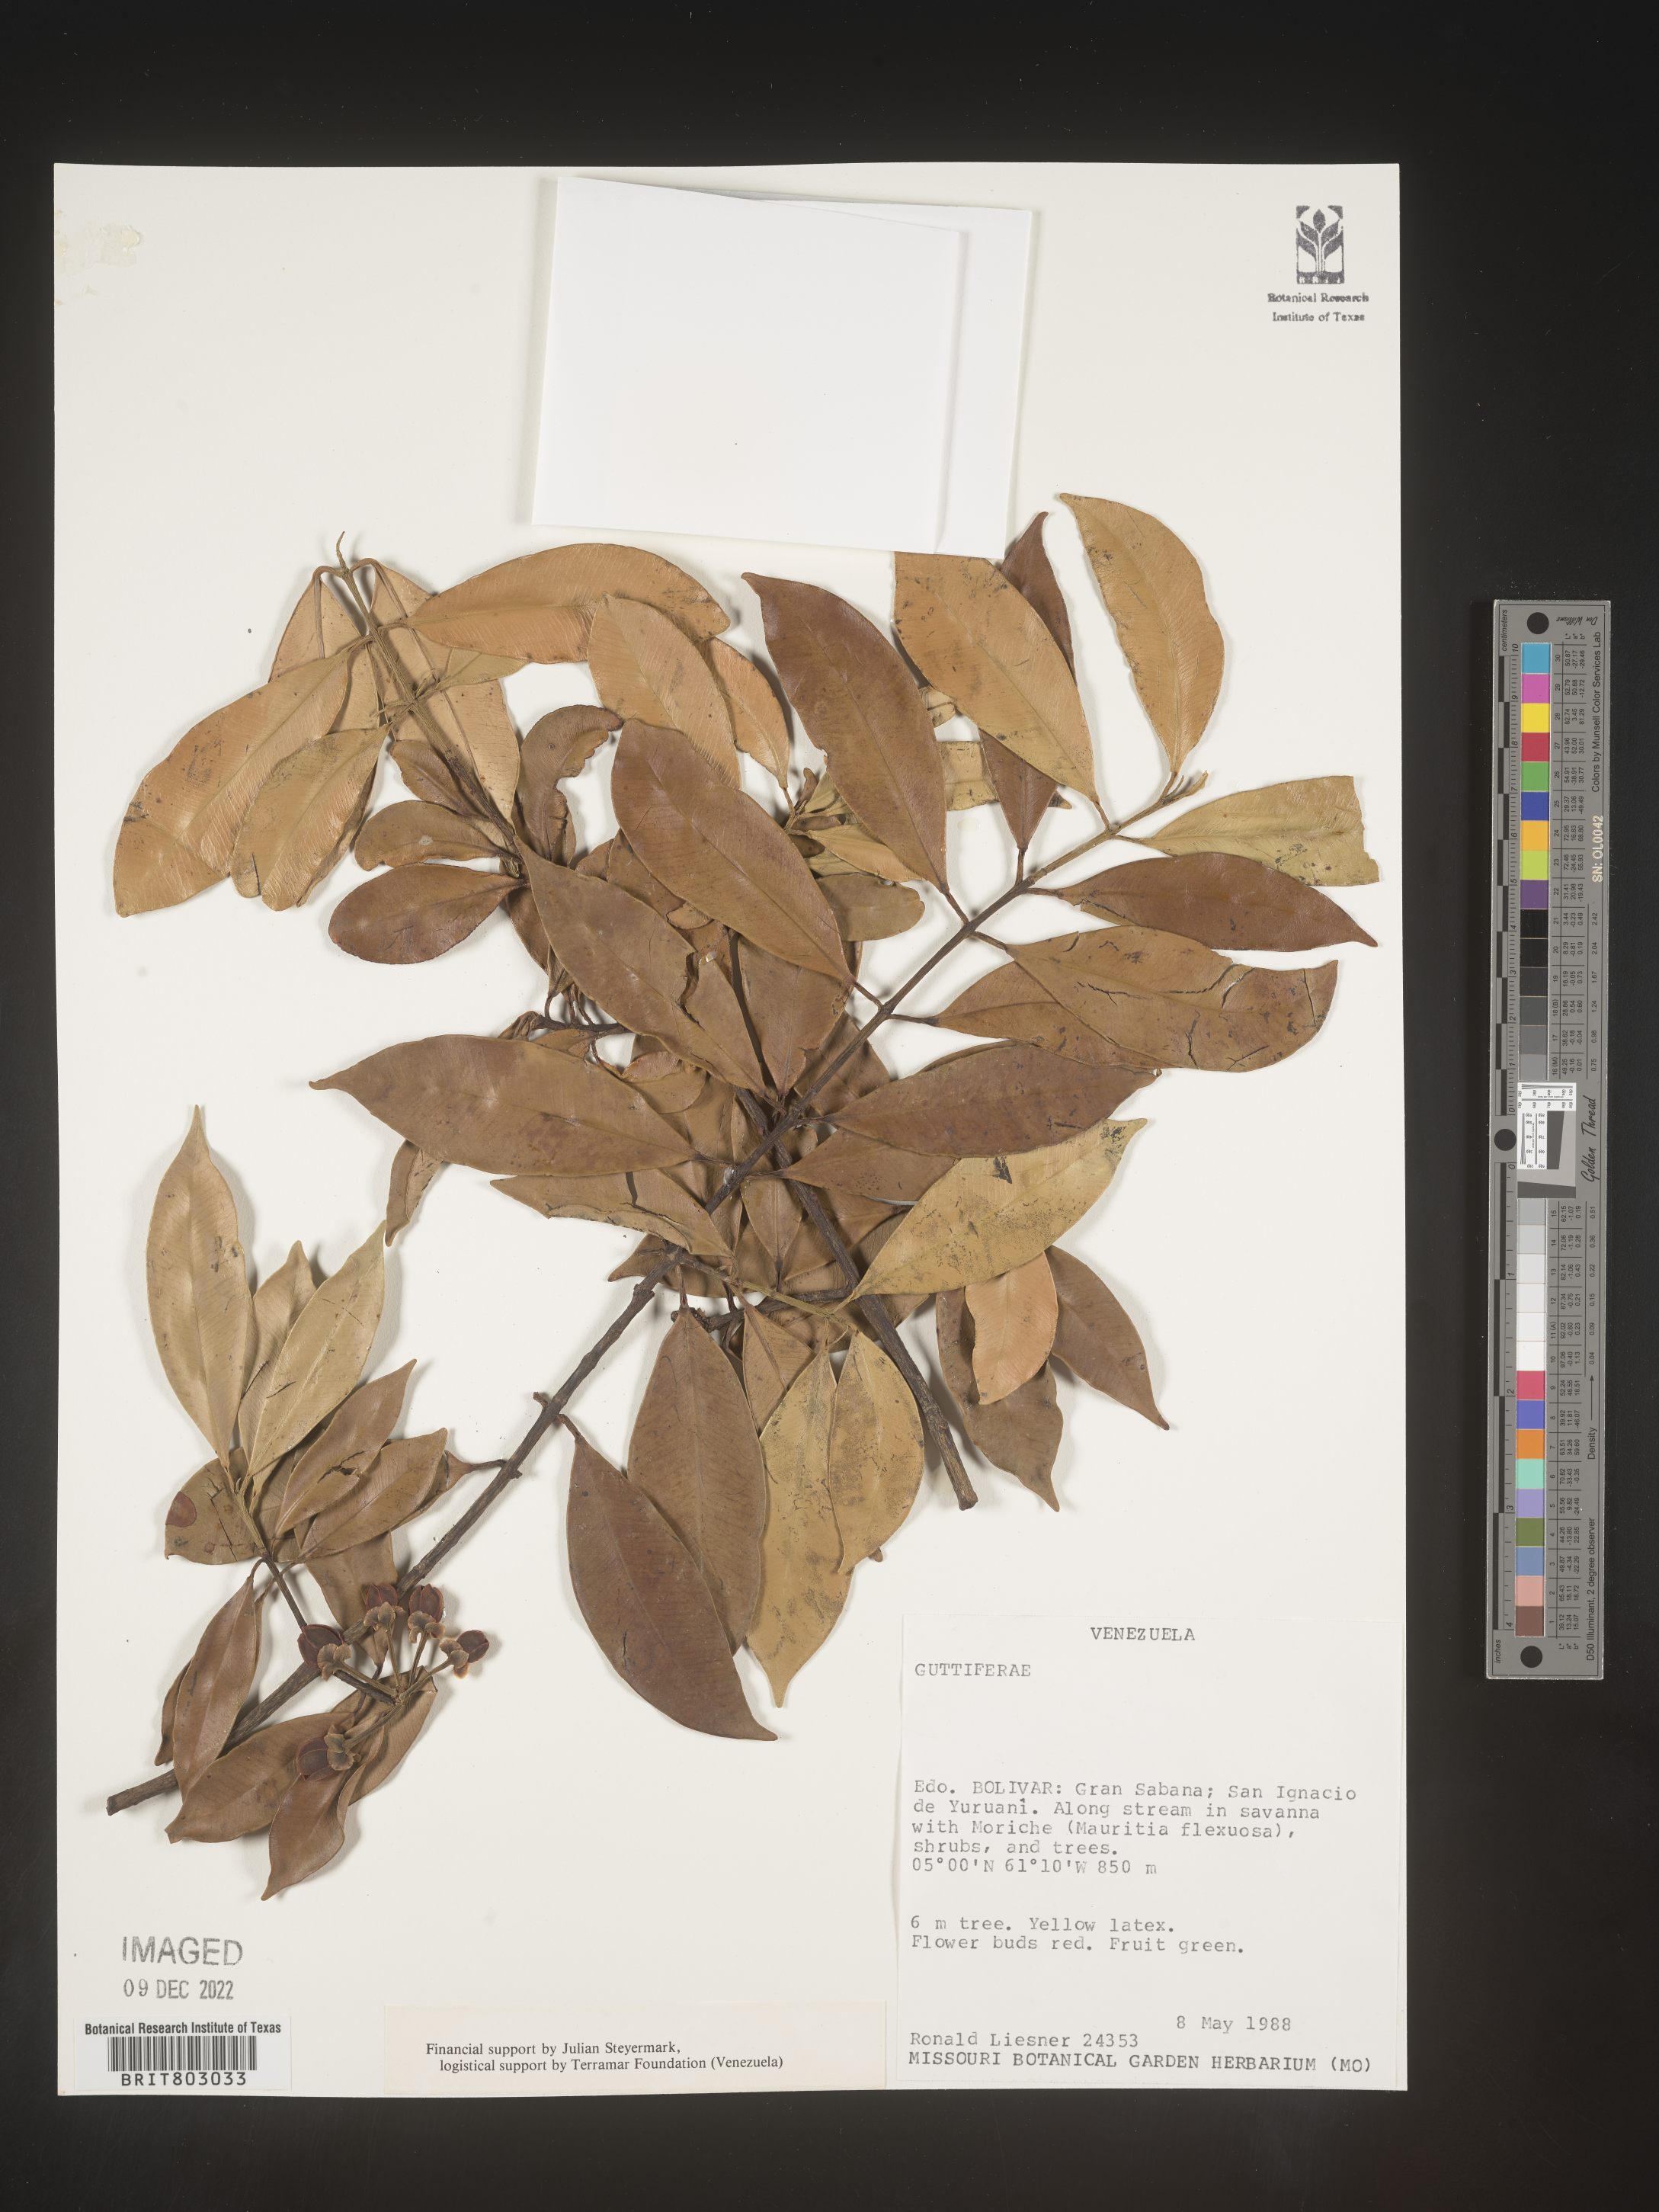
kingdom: Plantae
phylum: Tracheophyta
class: Magnoliopsida
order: Malpighiales
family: Clusiaceae
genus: Symphonia
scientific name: Symphonia
